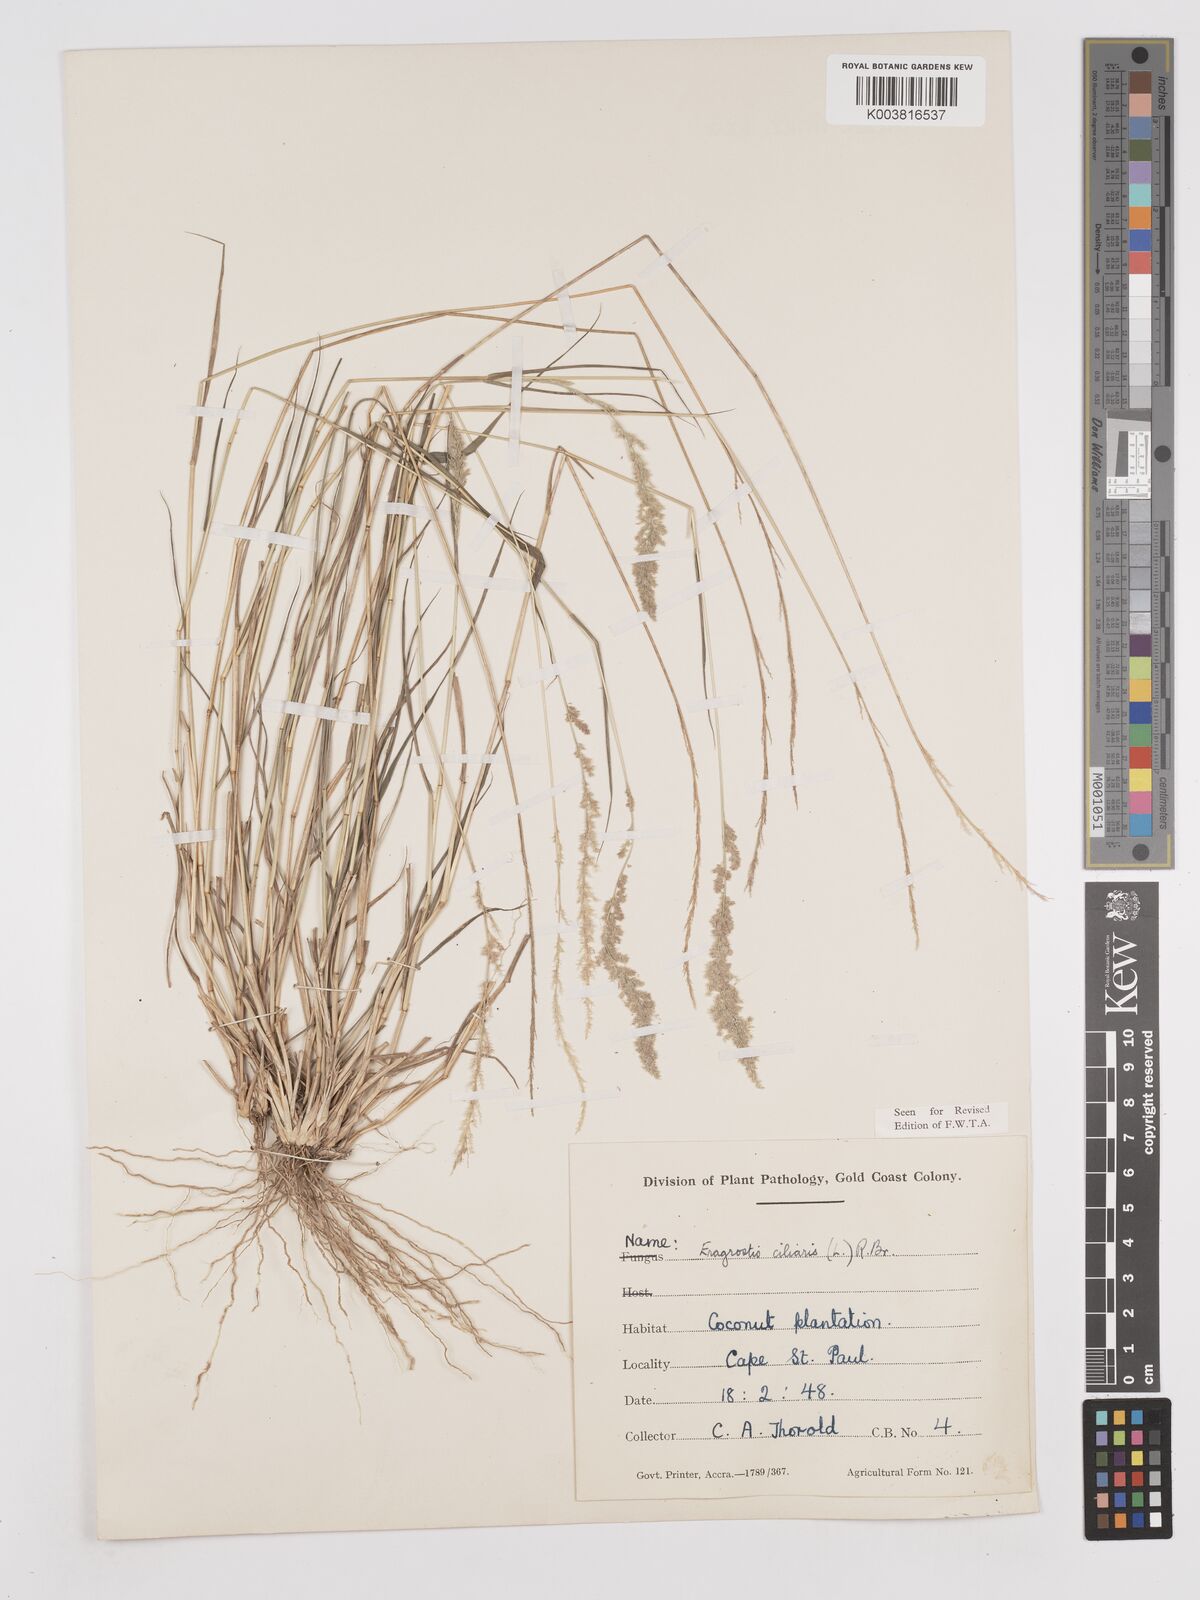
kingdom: Plantae
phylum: Tracheophyta
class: Liliopsida
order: Poales
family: Poaceae
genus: Eragrostis
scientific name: Eragrostis ciliaris
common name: Gophertail lovegrass
